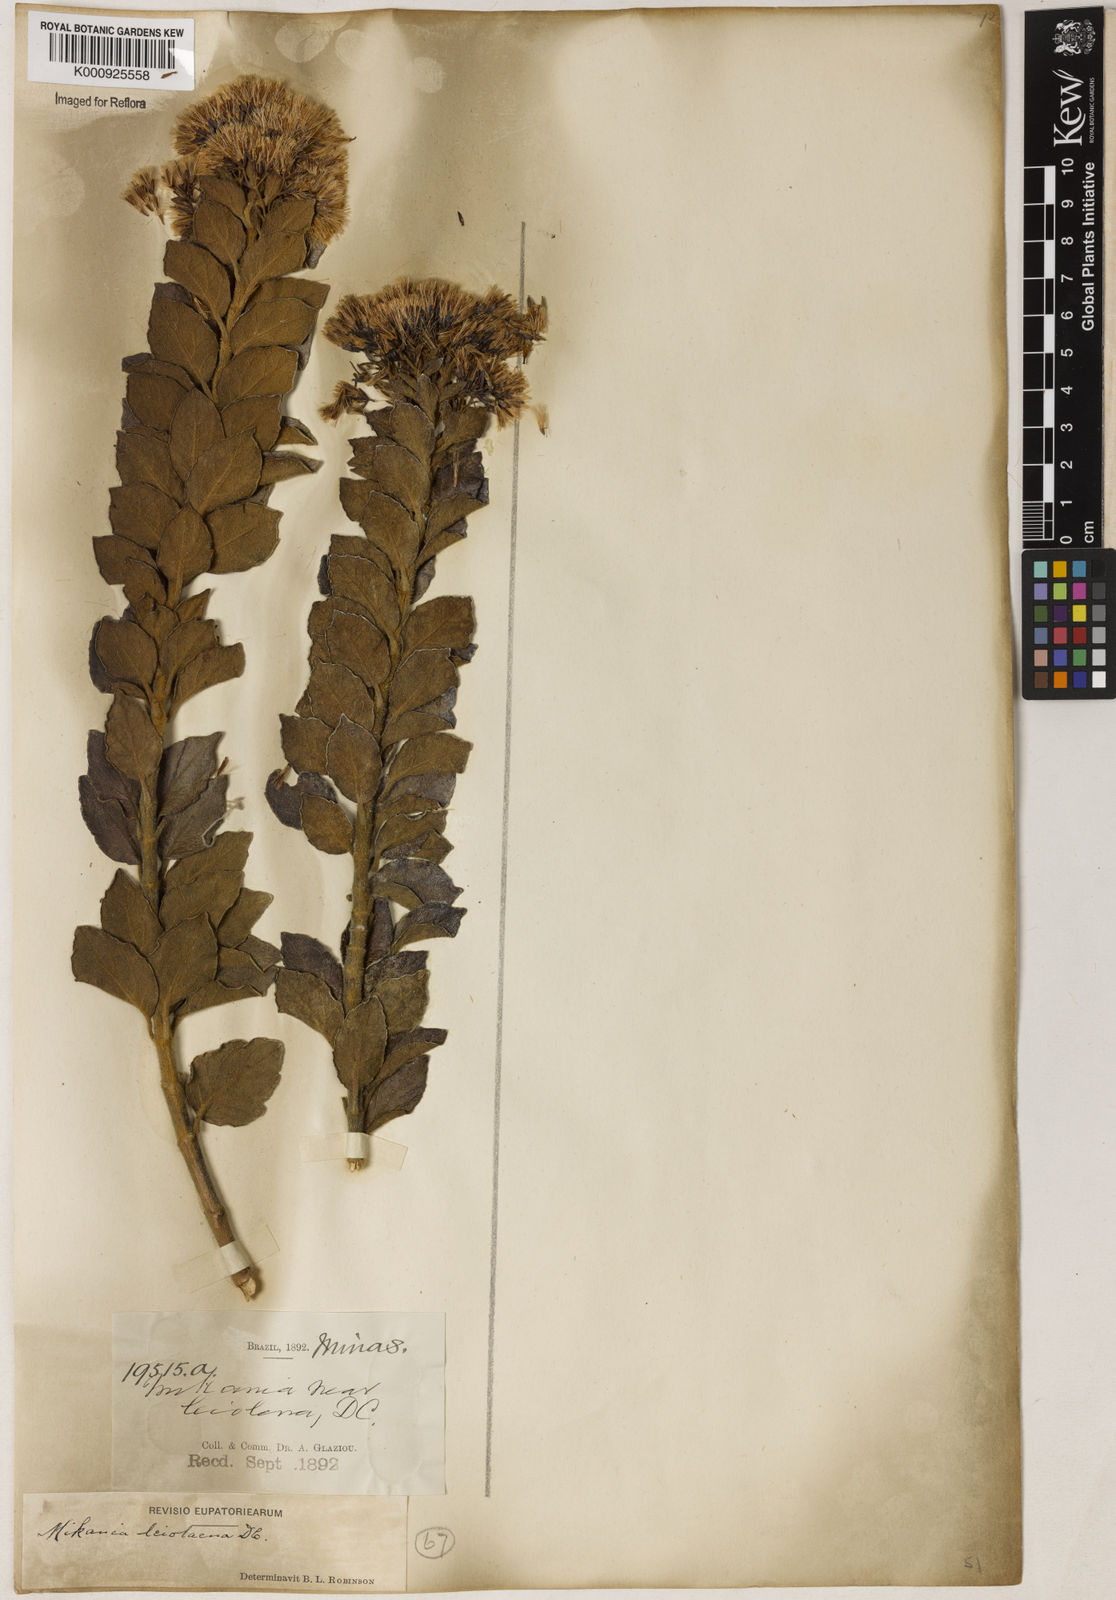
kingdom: Plantae
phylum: Tracheophyta
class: Magnoliopsida
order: Asterales
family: Asteraceae
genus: Mikania
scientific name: Mikania leiolaena
